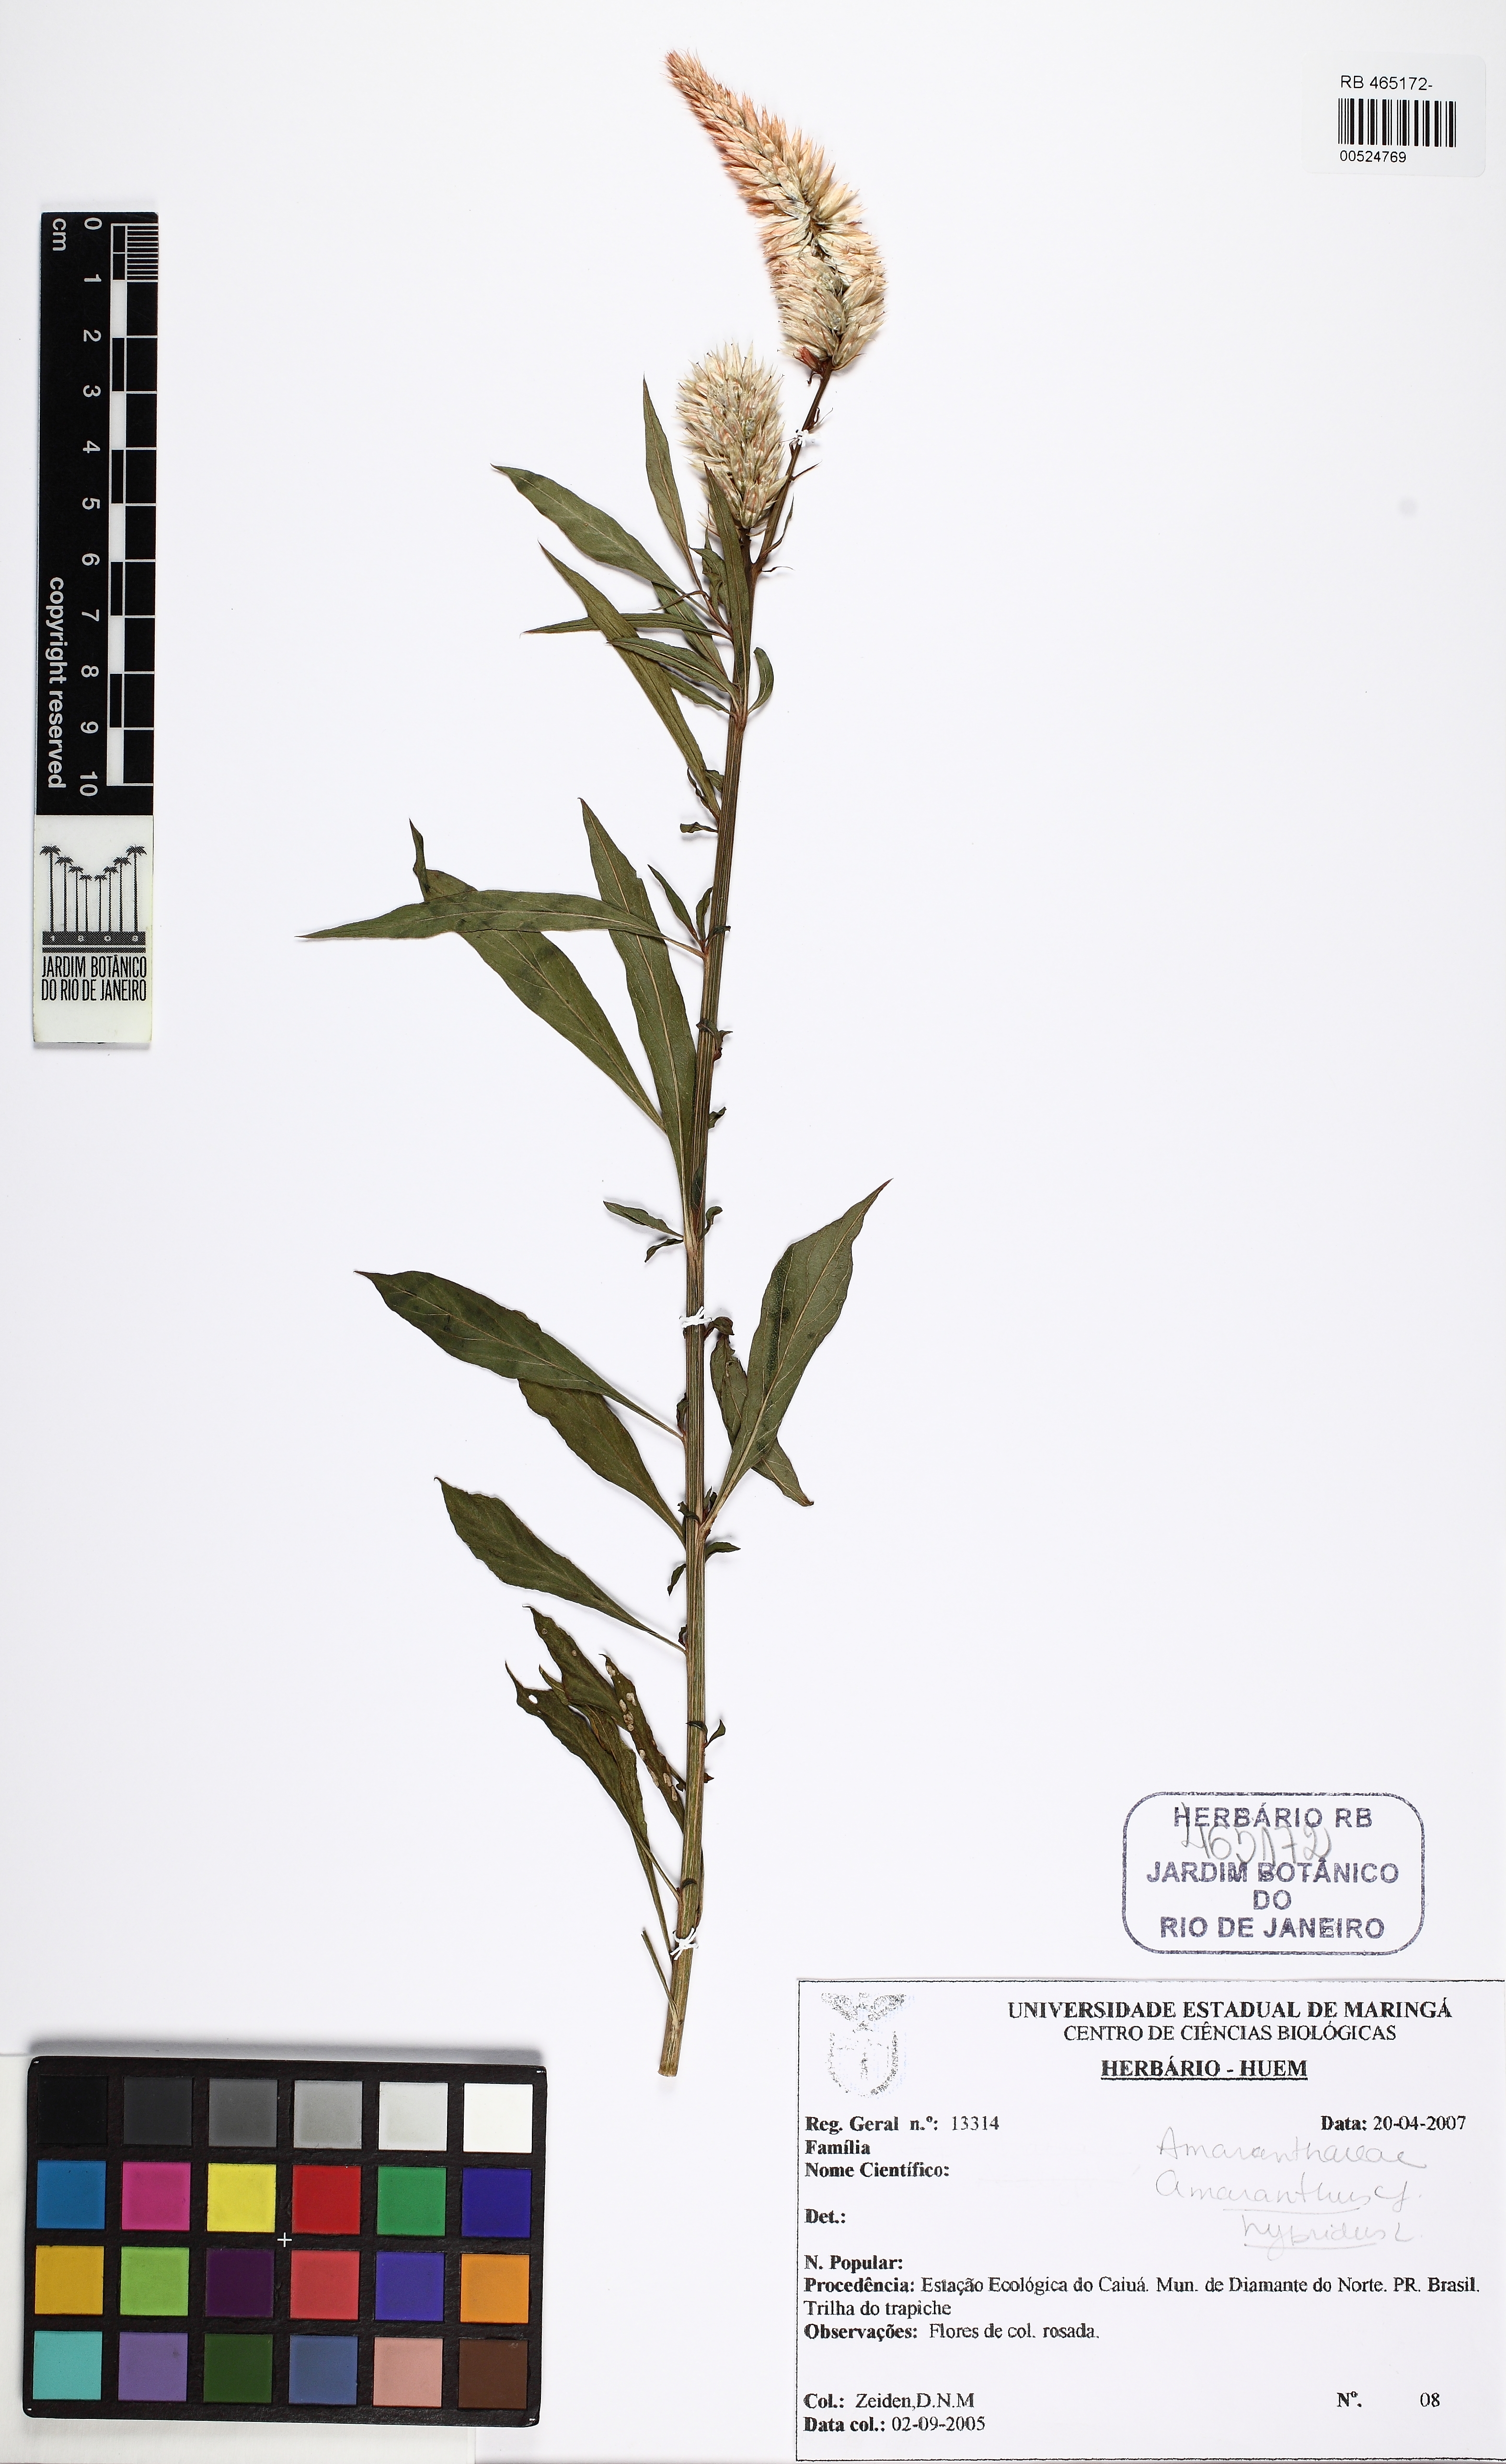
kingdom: Plantae
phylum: Tracheophyta
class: Magnoliopsida
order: Caryophyllales
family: Amaranthaceae
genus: Amaranthus
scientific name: Amaranthus hybridus
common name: Green amaranth
